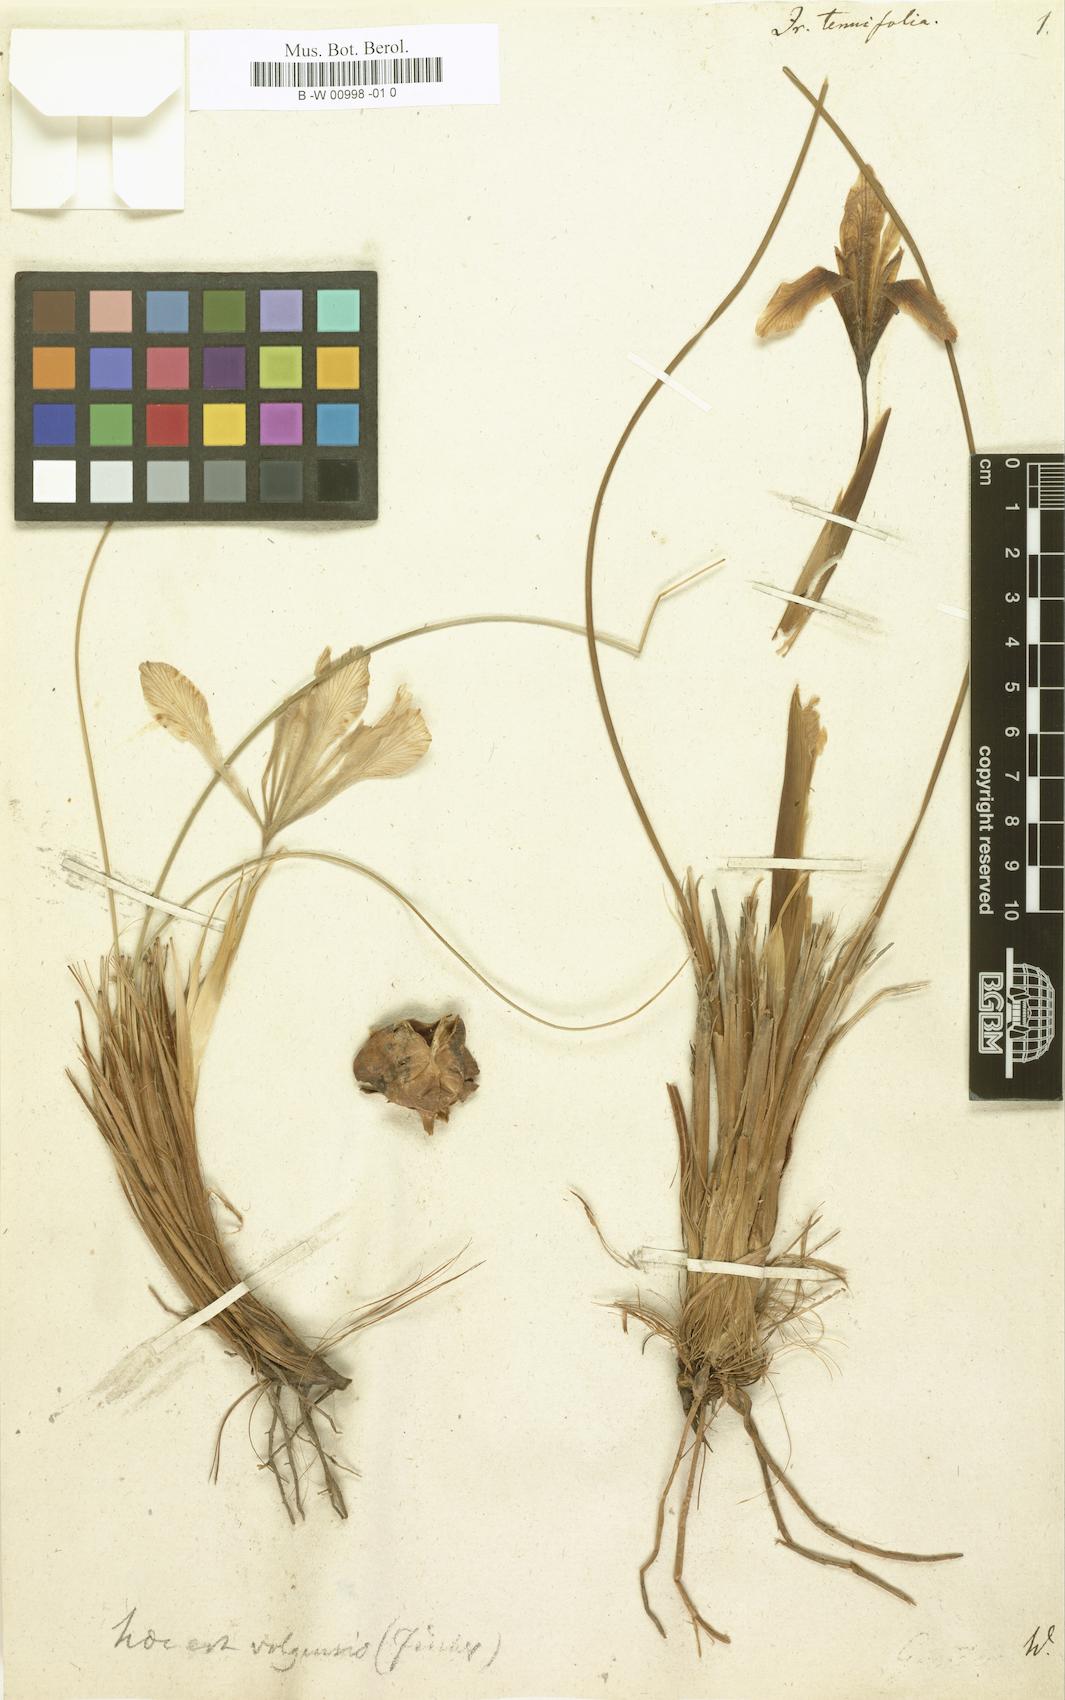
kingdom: Plantae
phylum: Tracheophyta
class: Liliopsida
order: Asparagales
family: Iridaceae
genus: Iris
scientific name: Iris tenuifolia
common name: Slender-leaf iris
